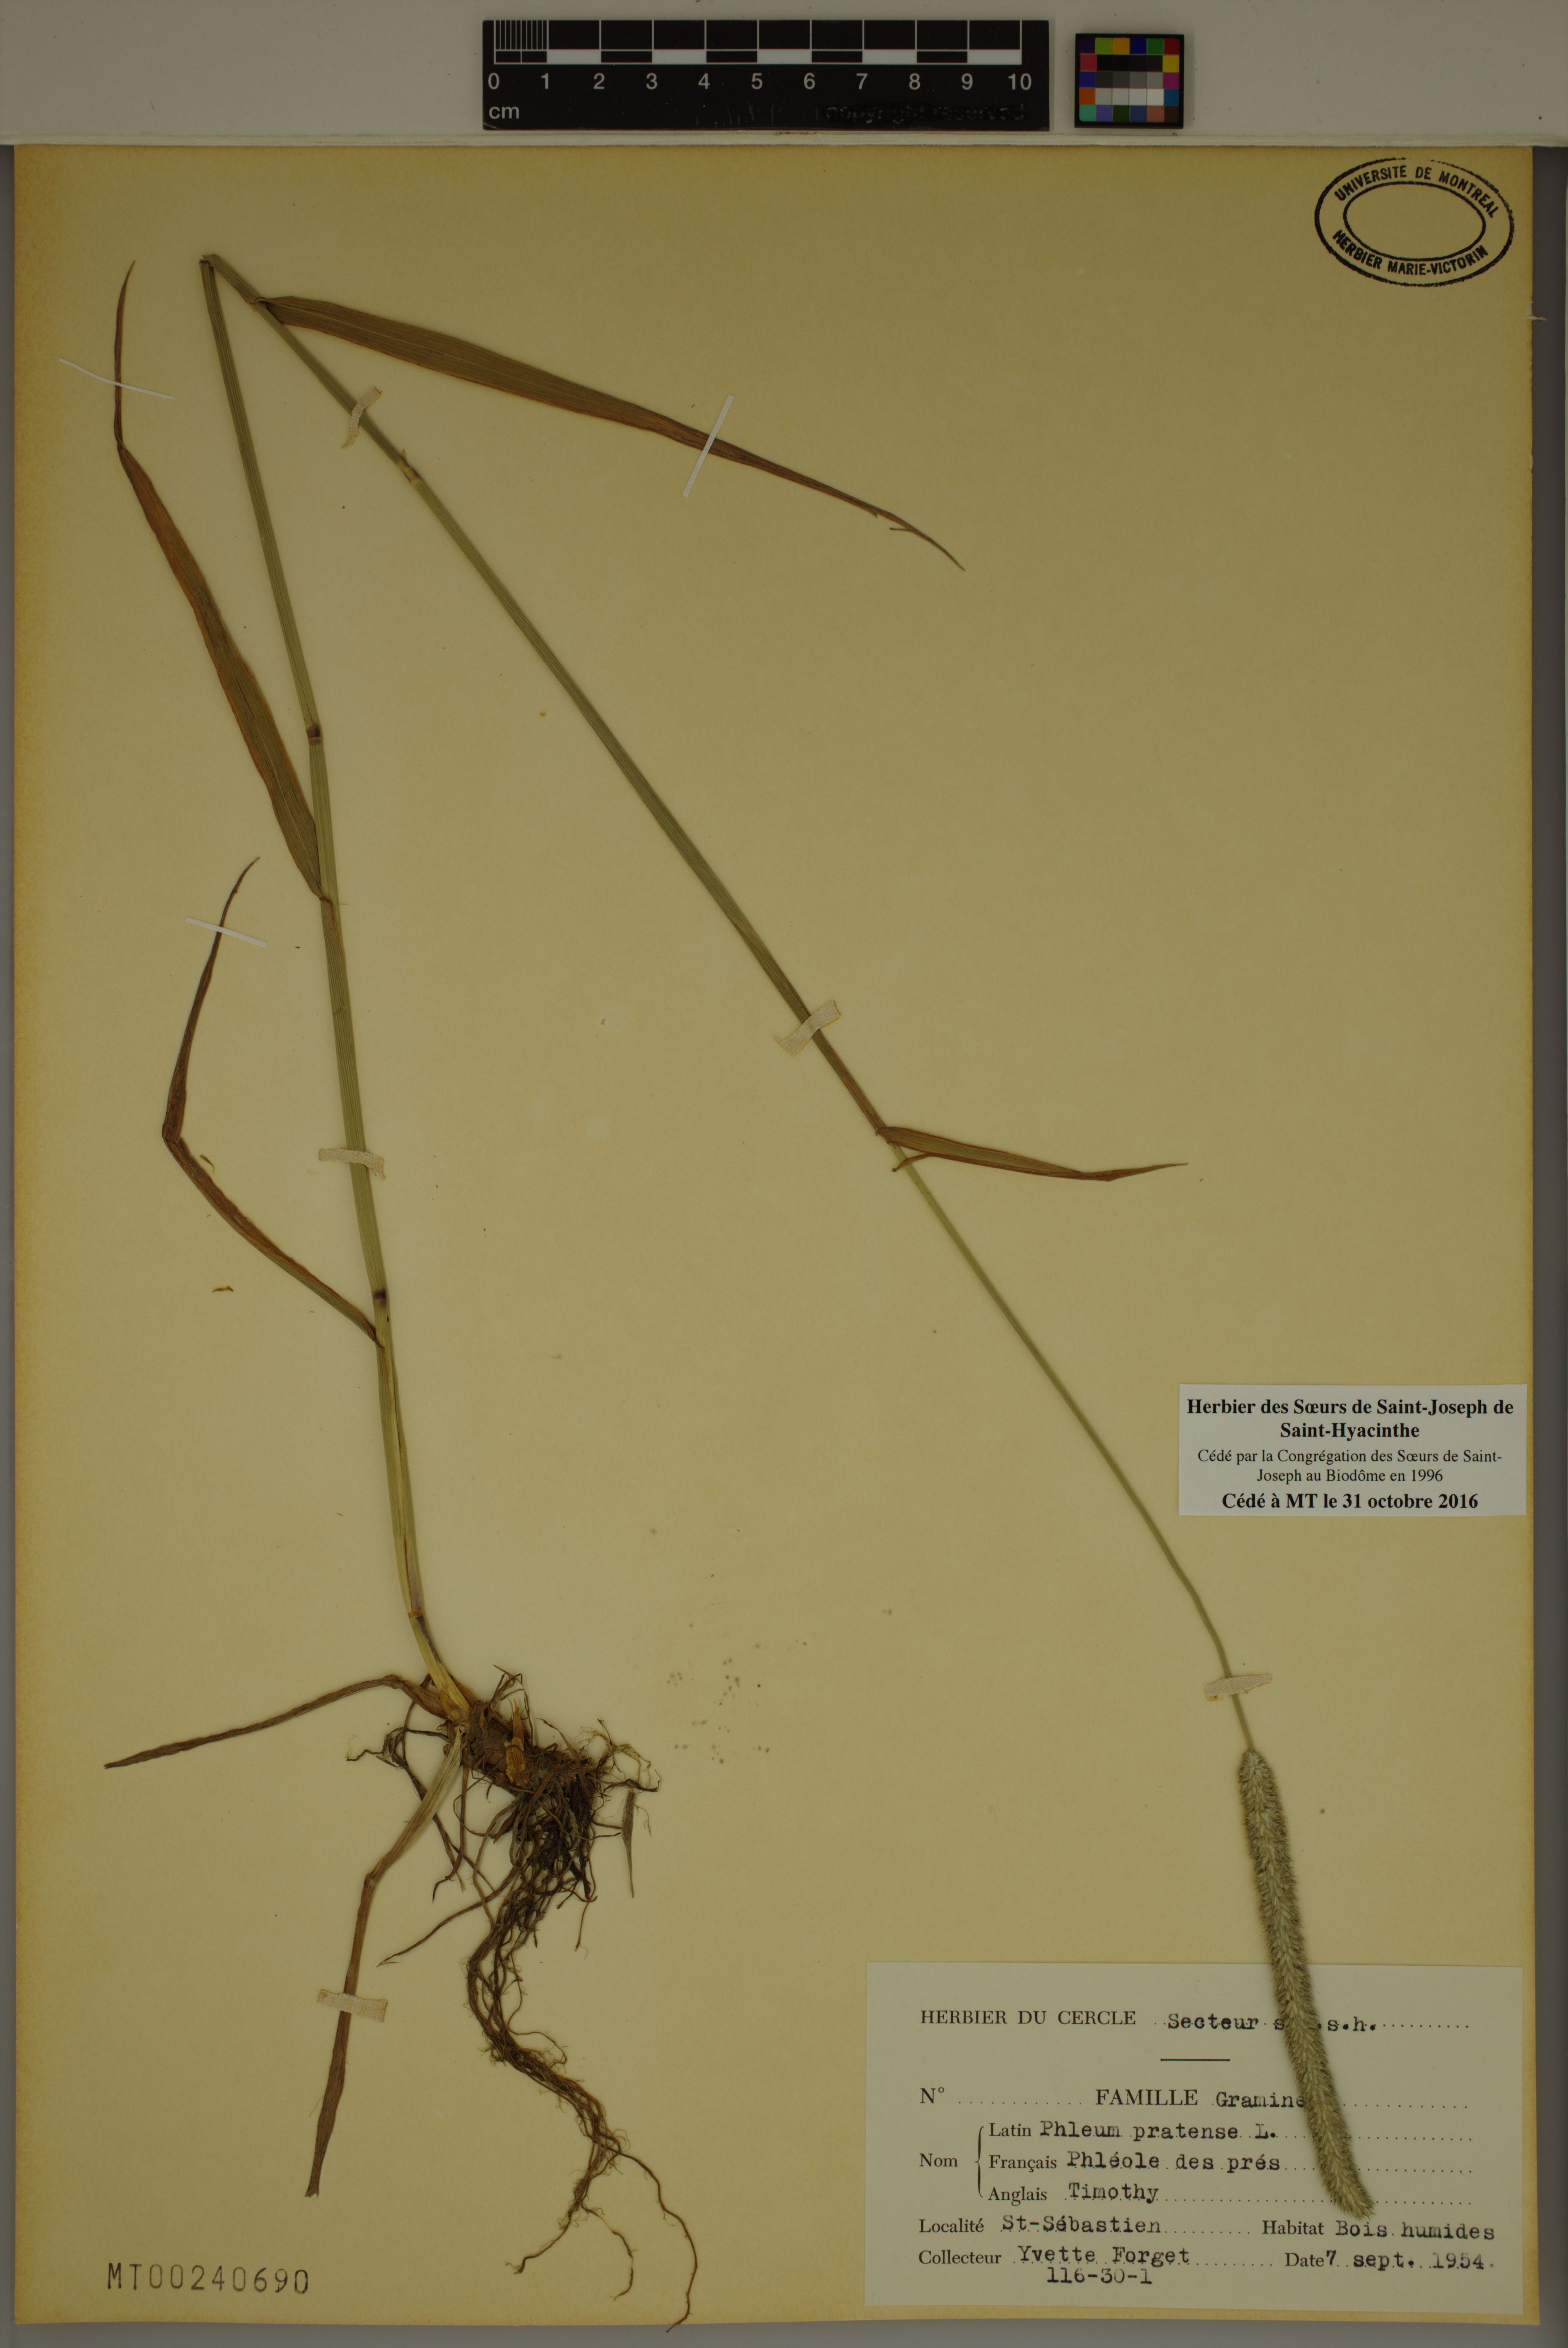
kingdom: Plantae
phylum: Tracheophyta
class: Liliopsida
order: Poales
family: Poaceae
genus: Phleum
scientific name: Phleum pratense
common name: Timothy grass
